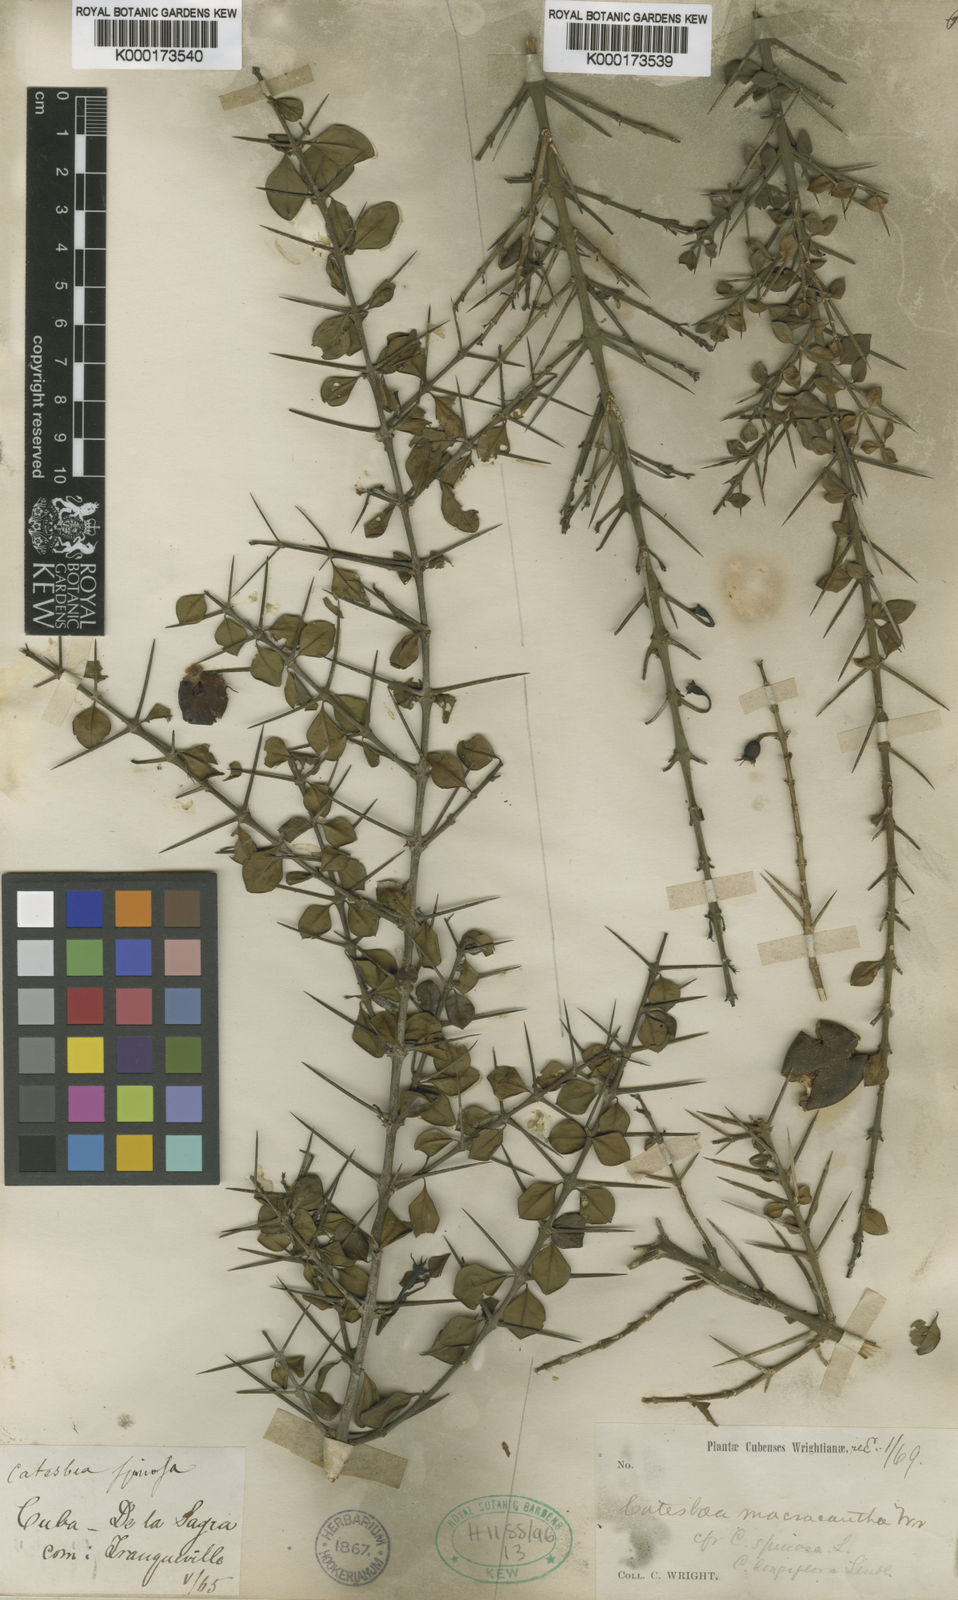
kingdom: Plantae
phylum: Tracheophyta
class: Magnoliopsida
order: Gentianales
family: Rubiaceae
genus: Catesbaea
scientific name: Catesbaea spinosa
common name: Spanish-guava
